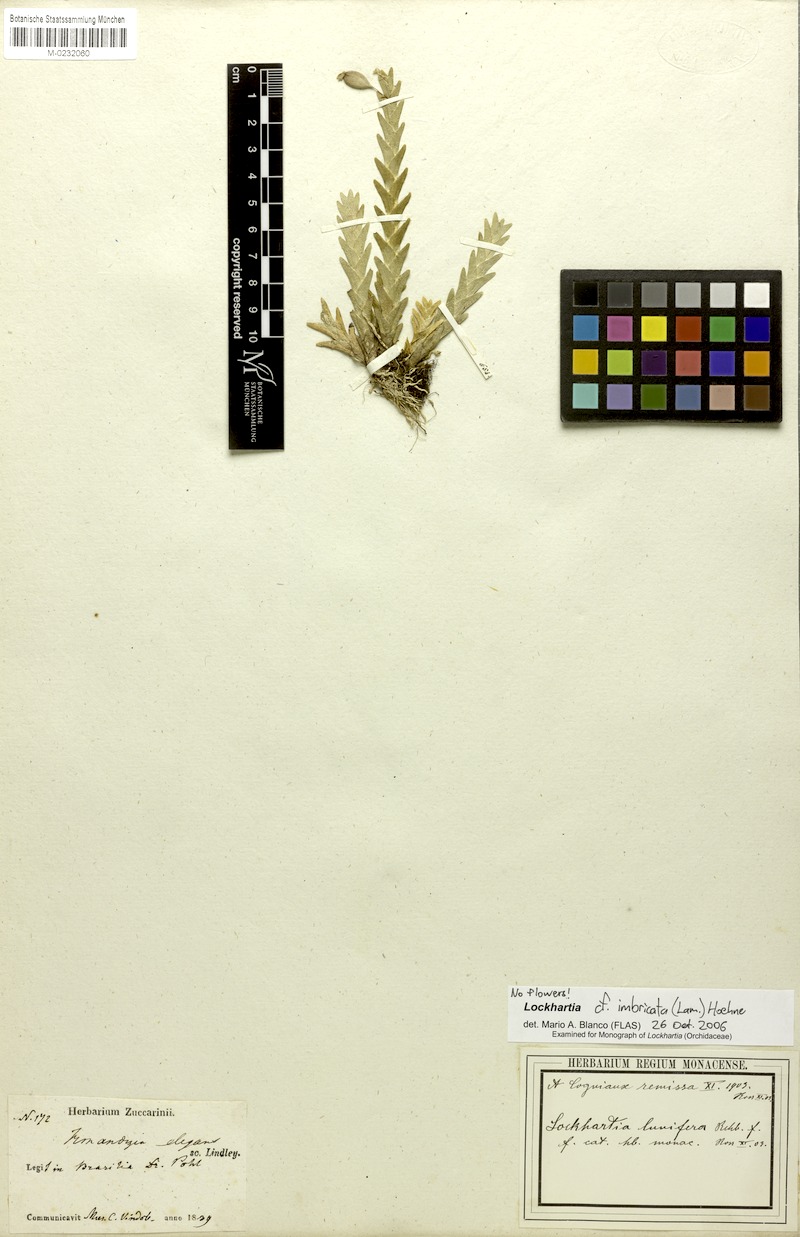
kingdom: Plantae
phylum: Tracheophyta
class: Liliopsida
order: Asparagales
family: Orchidaceae
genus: Lockhartia
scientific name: Lockhartia imbricata
